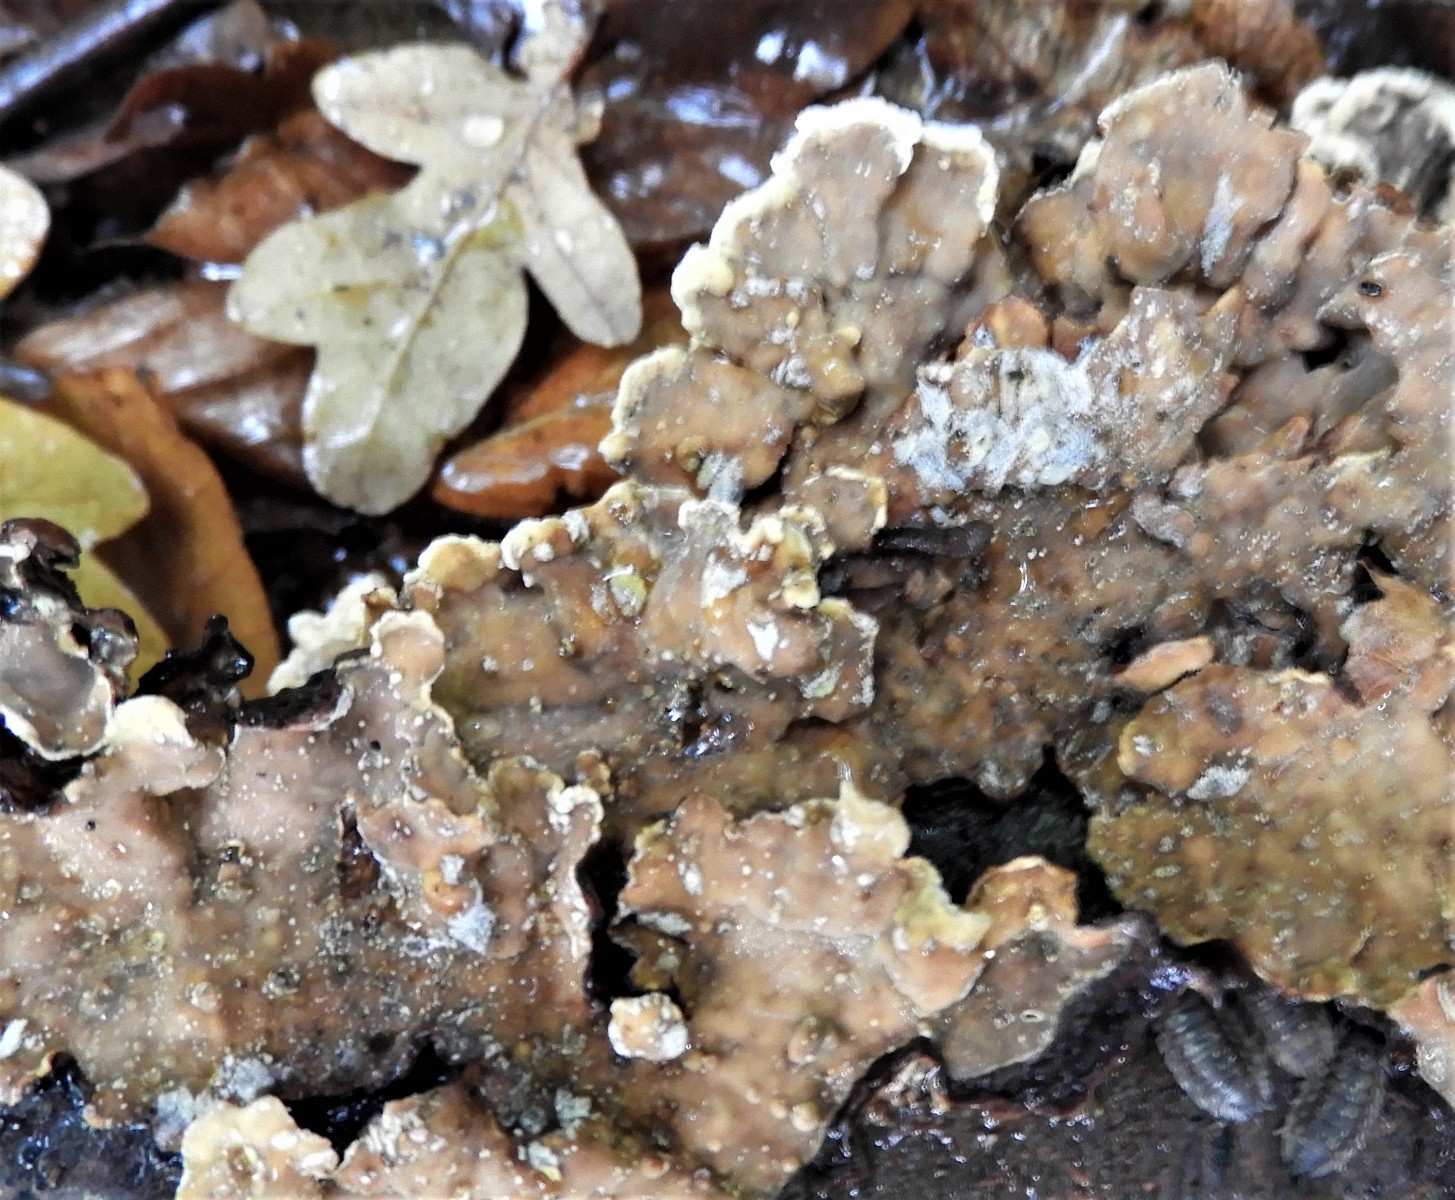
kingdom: Fungi
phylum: Basidiomycota
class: Agaricomycetes
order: Russulales
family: Stereaceae
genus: Stereum
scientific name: Stereum subtomentosum
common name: smuk lædersvamp
